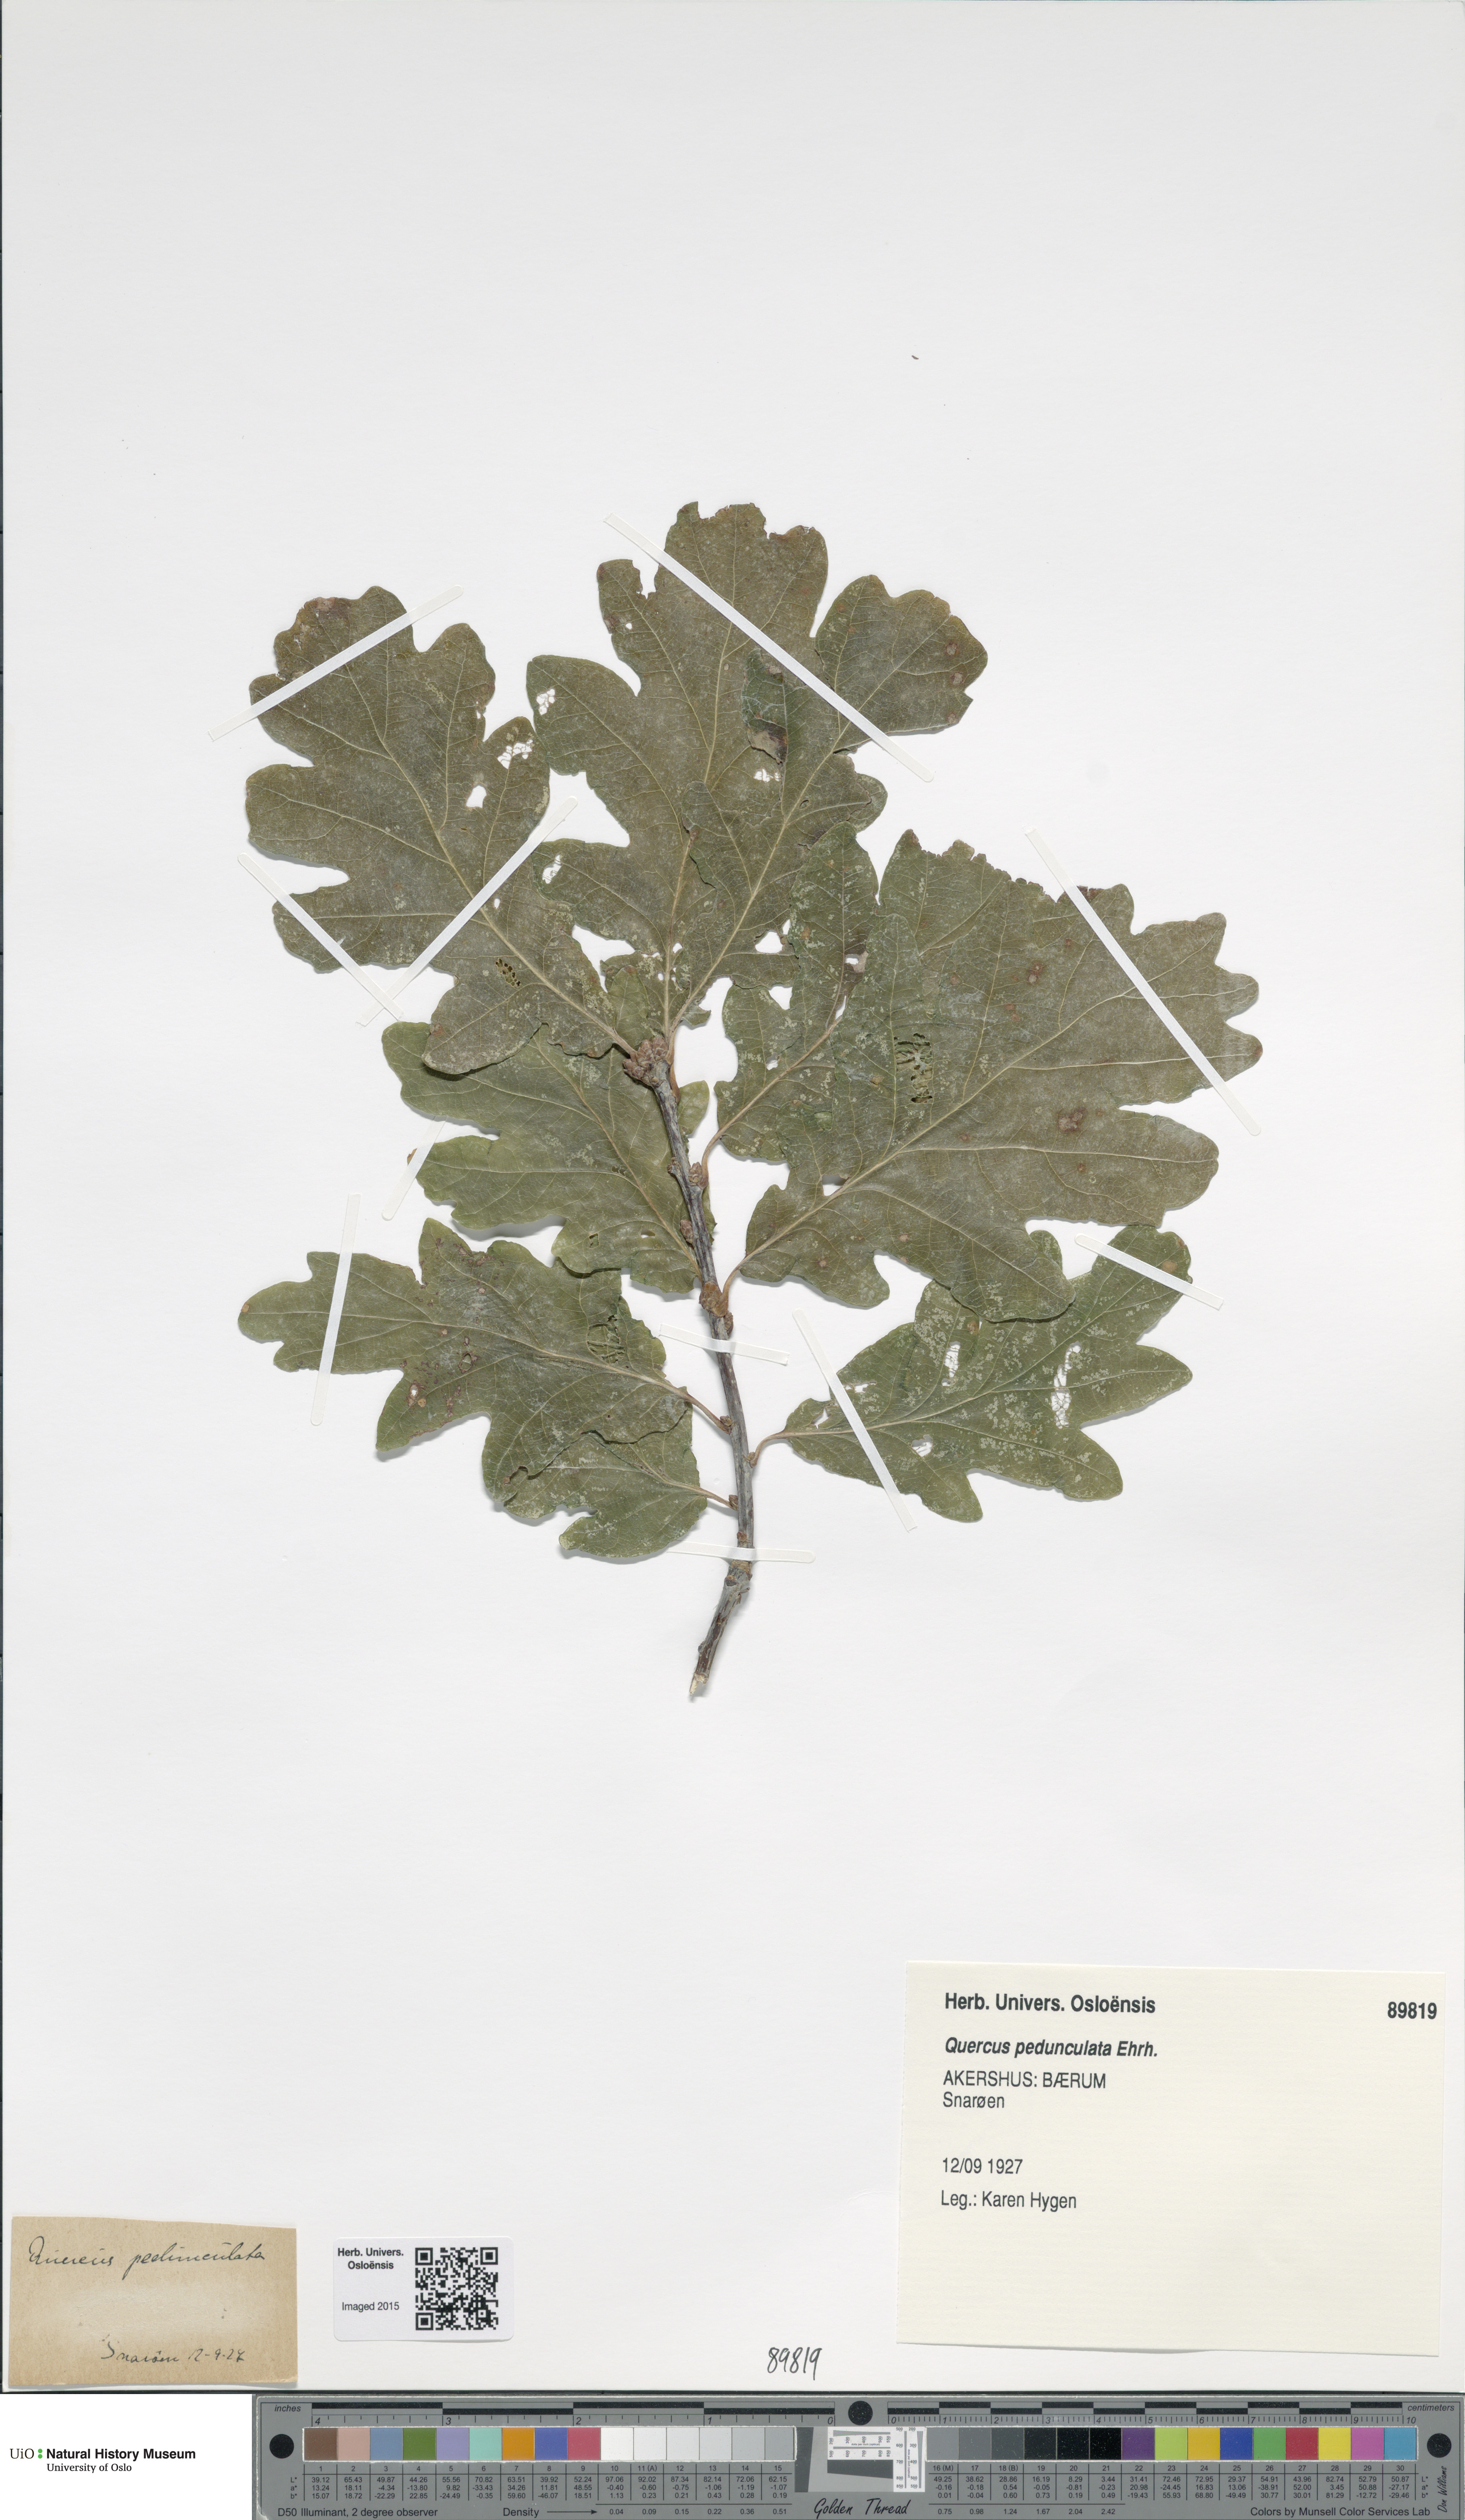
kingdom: Plantae
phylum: Tracheophyta
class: Magnoliopsida
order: Fagales
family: Fagaceae
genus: Quercus
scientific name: Quercus robur
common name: Pedunculate oak
